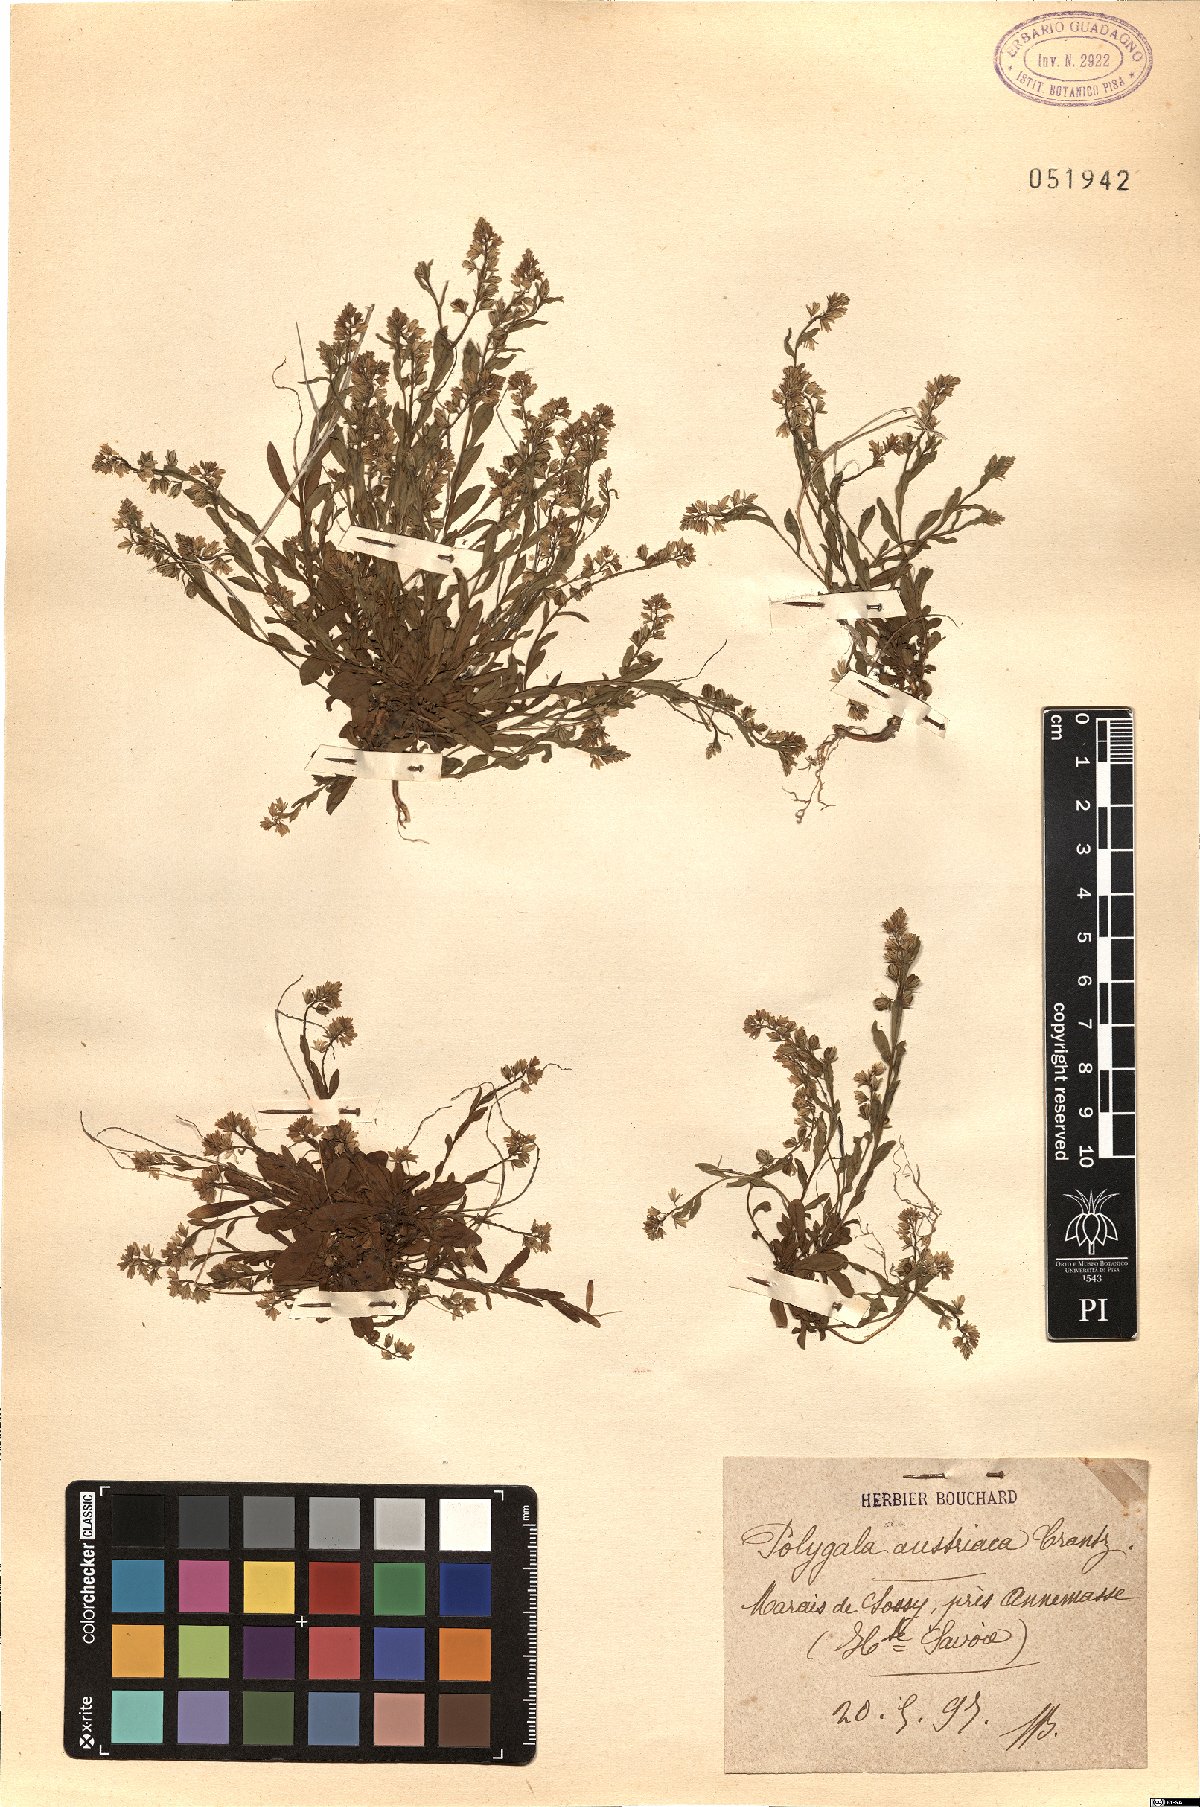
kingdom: Plantae
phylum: Tracheophyta
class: Magnoliopsida
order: Fabales
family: Polygalaceae
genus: Polygala
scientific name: Polygala amarella
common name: Dwarf milkwort
